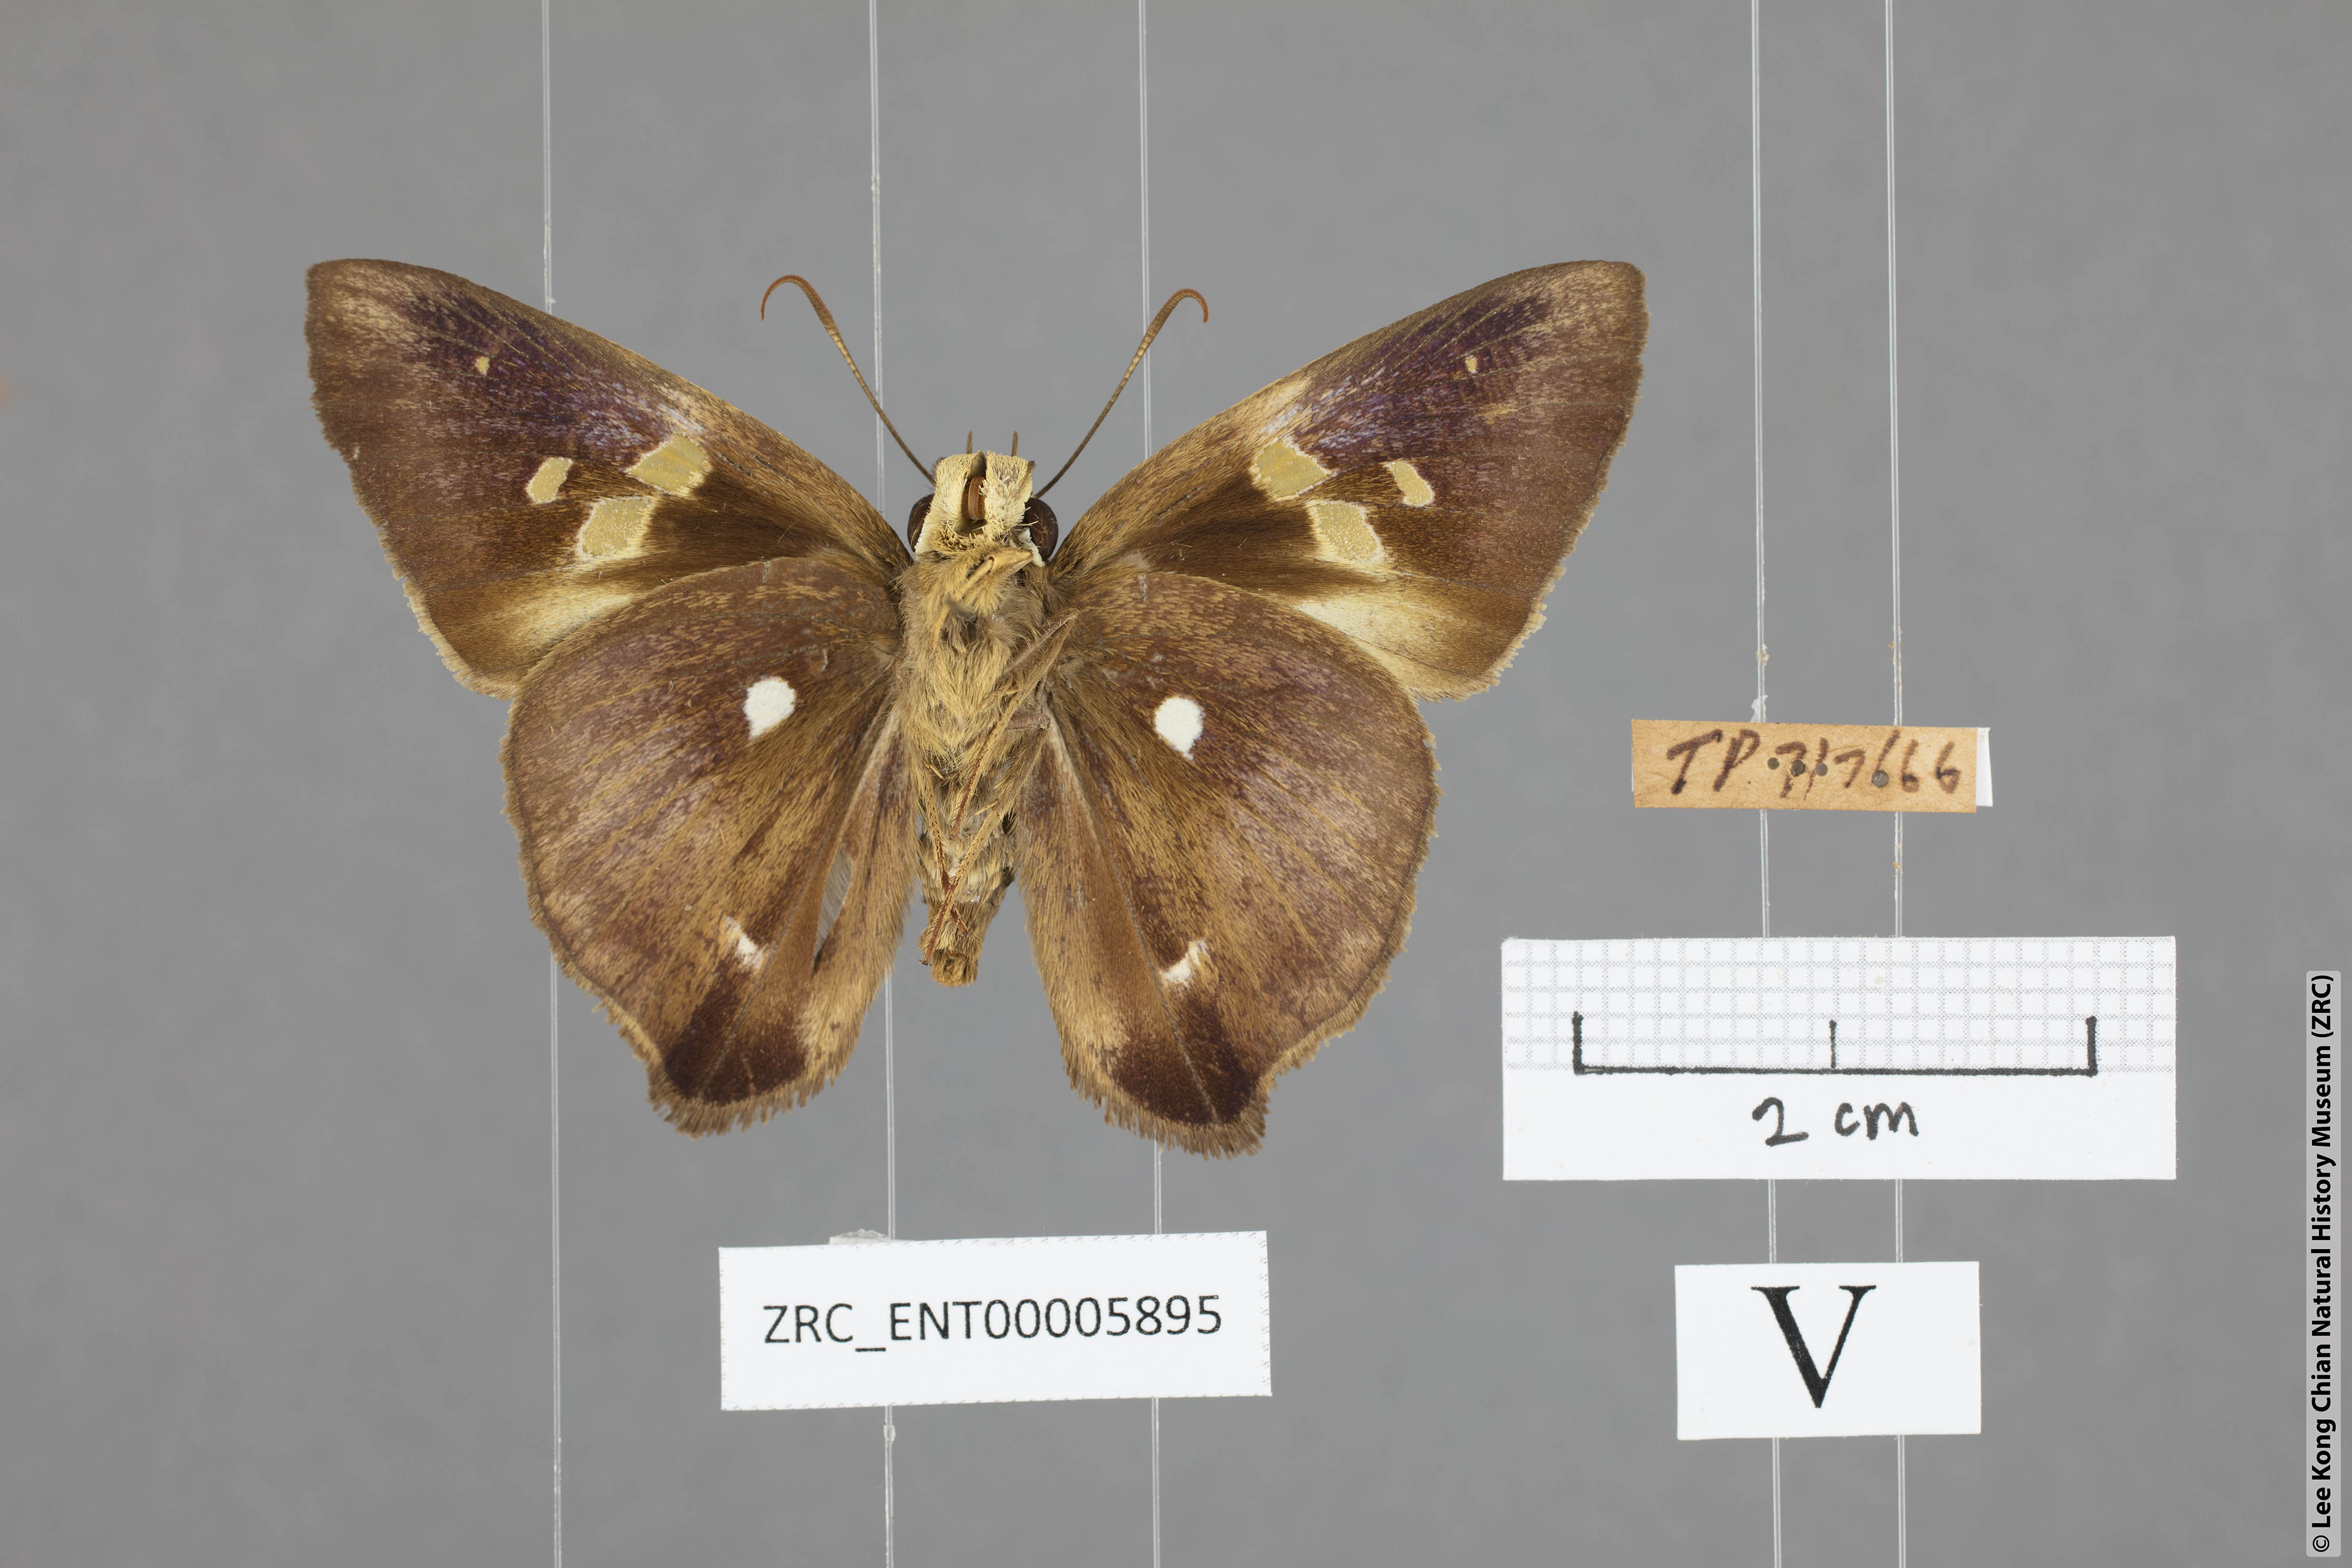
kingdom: Animalia
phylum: Arthropoda
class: Insecta
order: Lepidoptera
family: Hesperiidae
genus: Hasora
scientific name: Hasora quadripunctata
